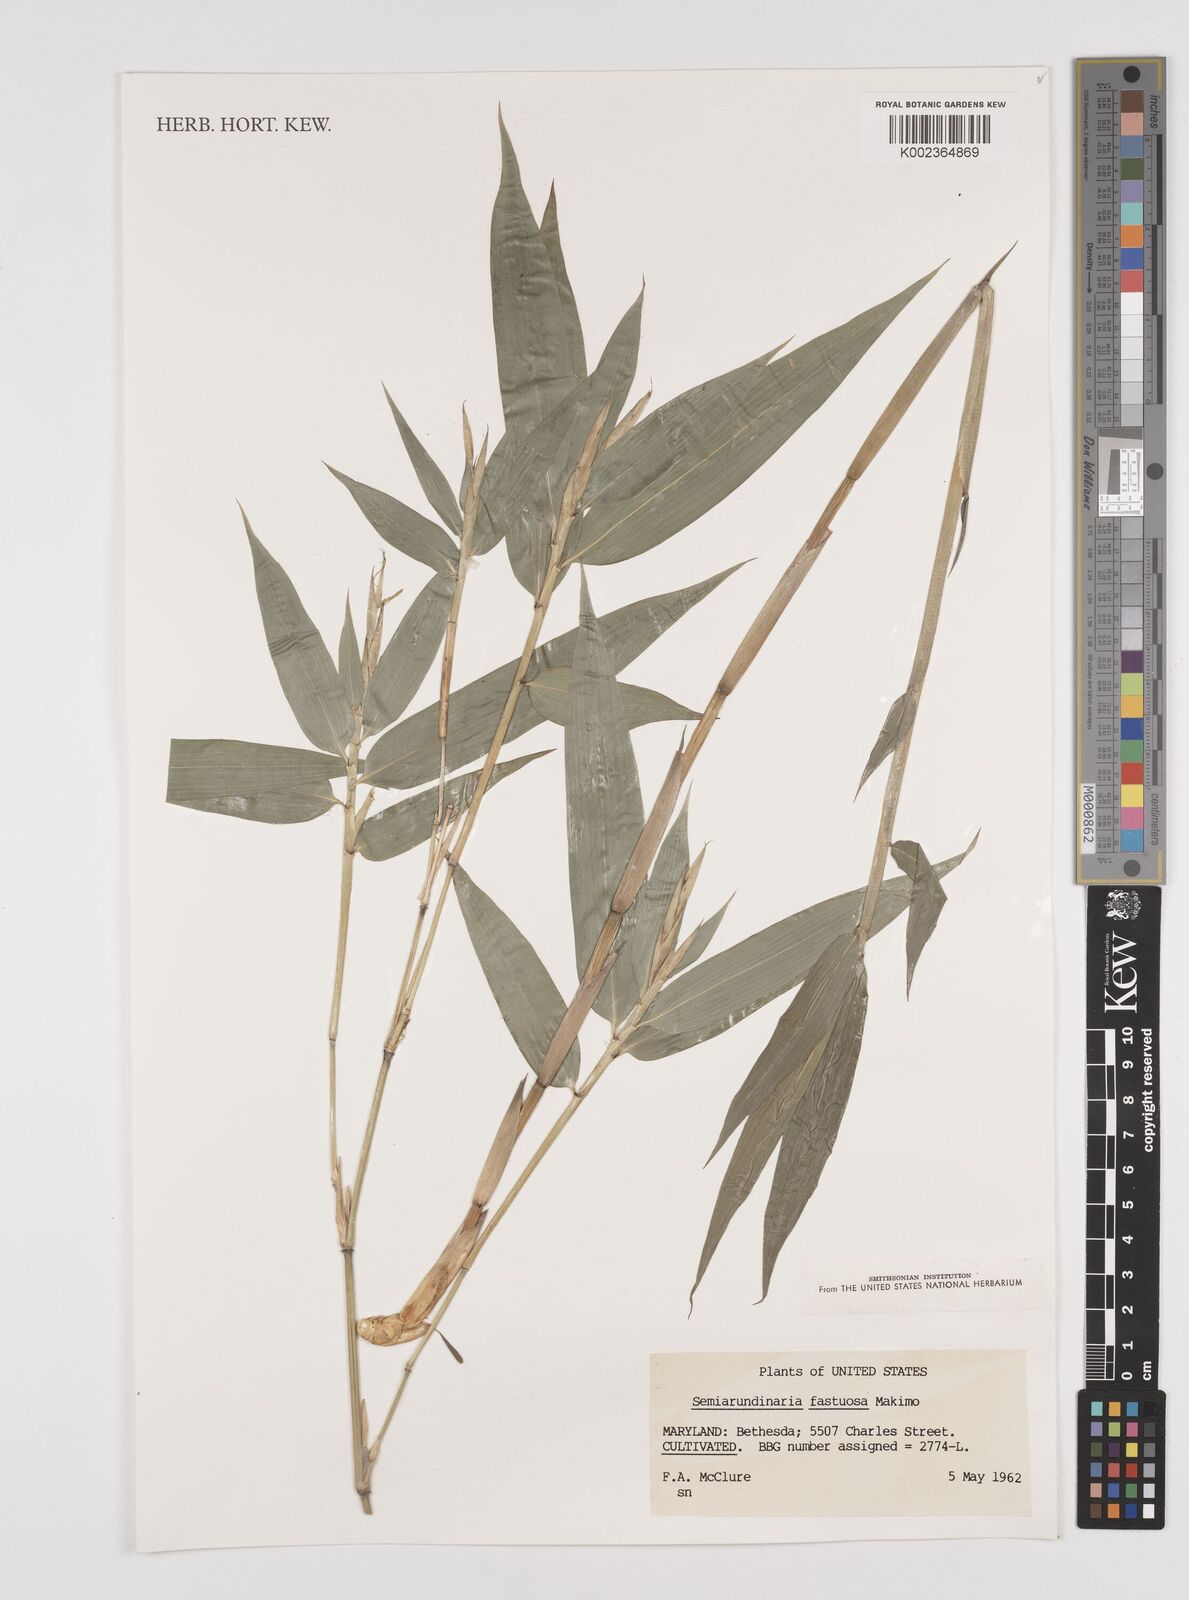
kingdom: Plantae
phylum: Tracheophyta
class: Liliopsida
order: Poales
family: Poaceae
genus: Semiarundinaria
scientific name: Semiarundinaria fastuosa
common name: Narihira bamboo
